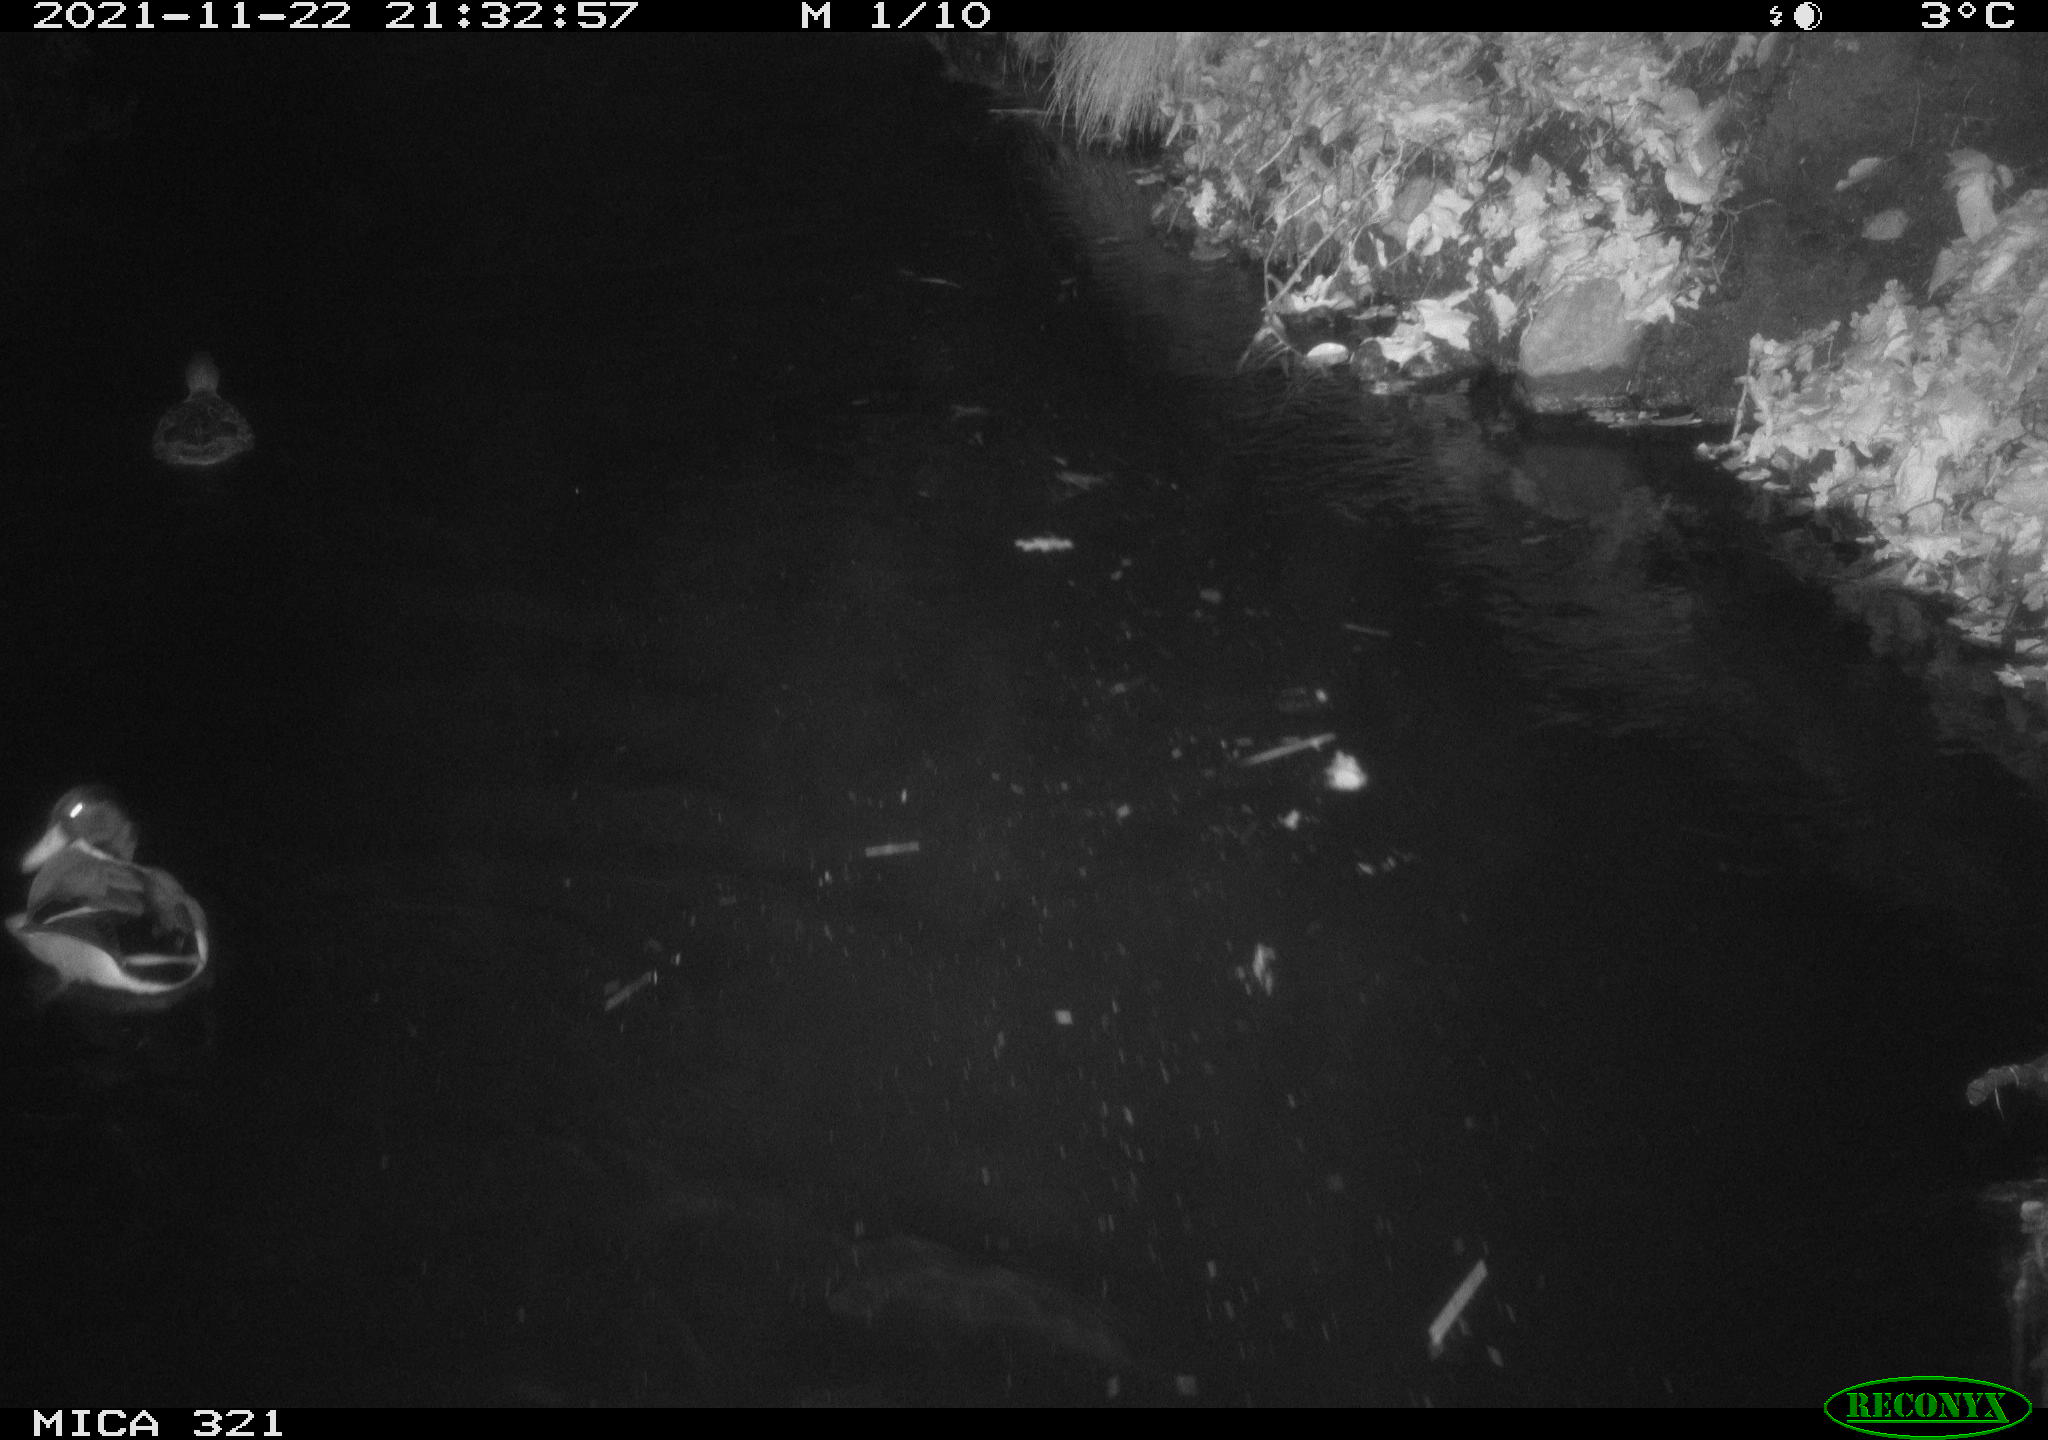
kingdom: Animalia
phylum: Chordata
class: Aves
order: Anseriformes
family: Anatidae
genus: Anas
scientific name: Anas platyrhynchos
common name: Mallard
